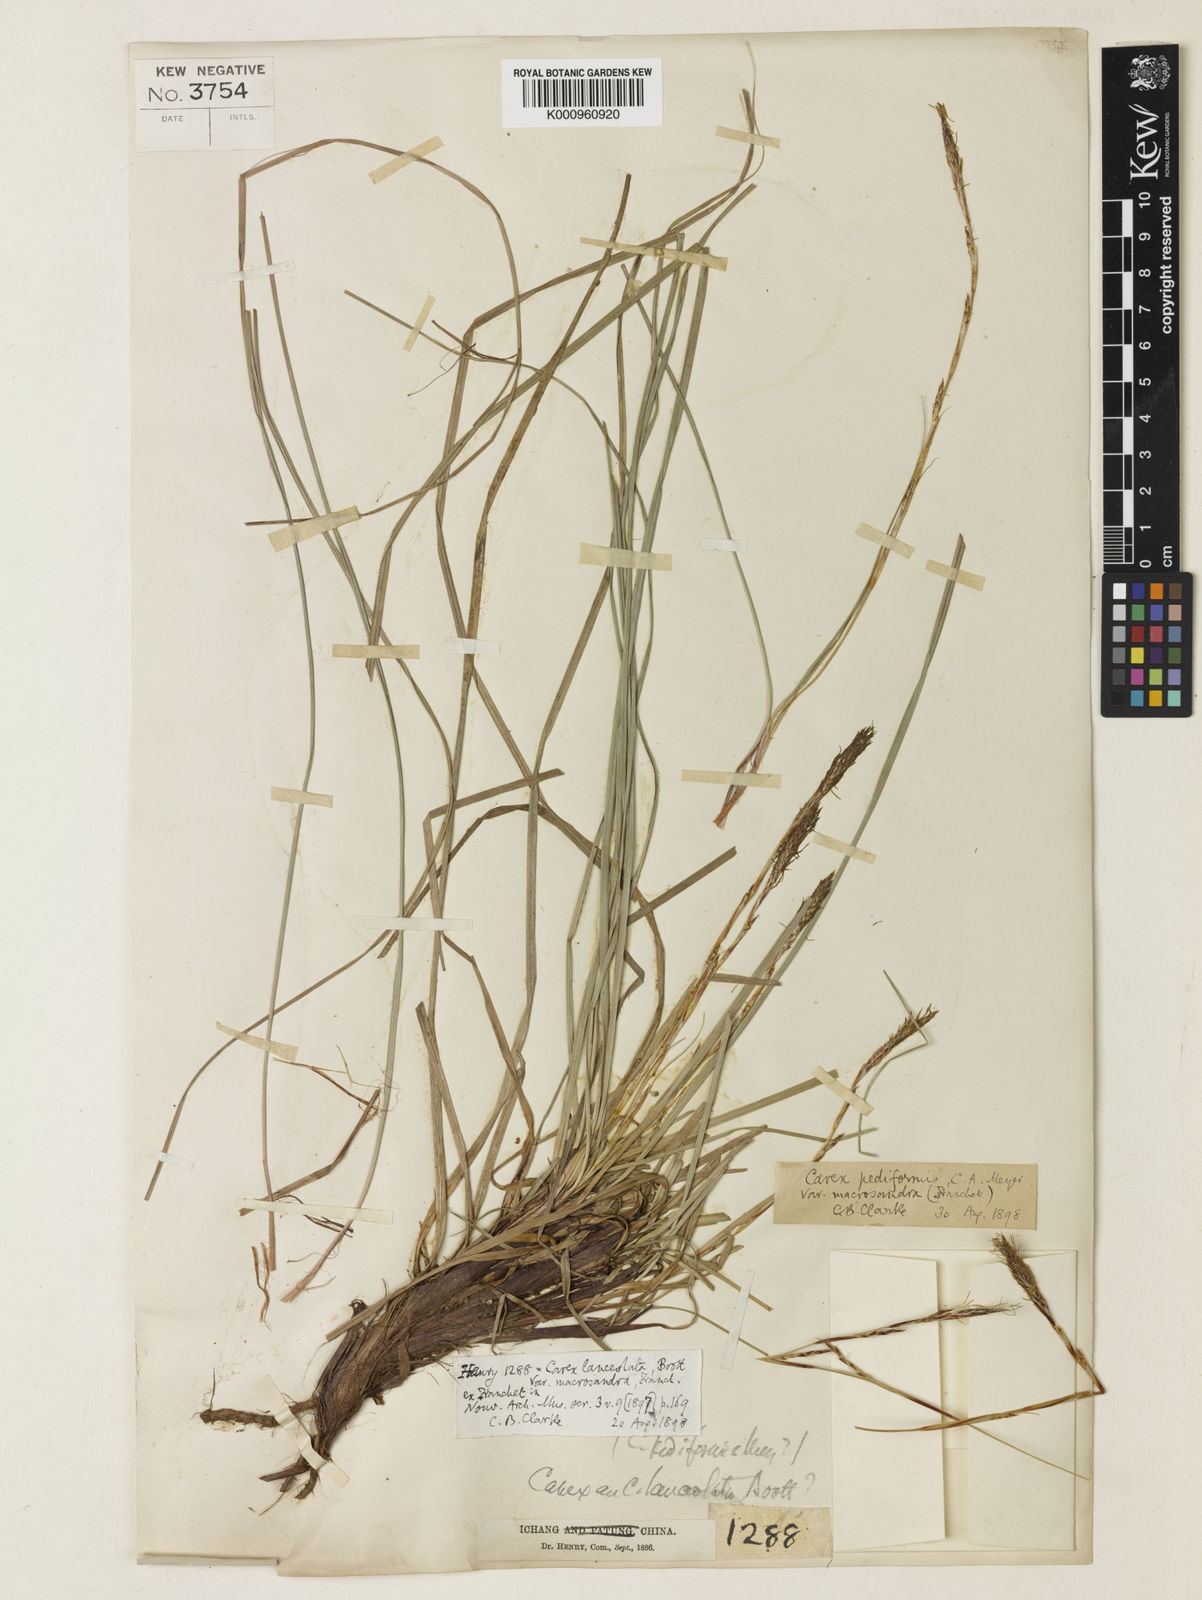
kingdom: Plantae
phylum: Tracheophyta
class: Liliopsida
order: Poales
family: Cyperaceae
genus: Carex
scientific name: Carex lanceolata
